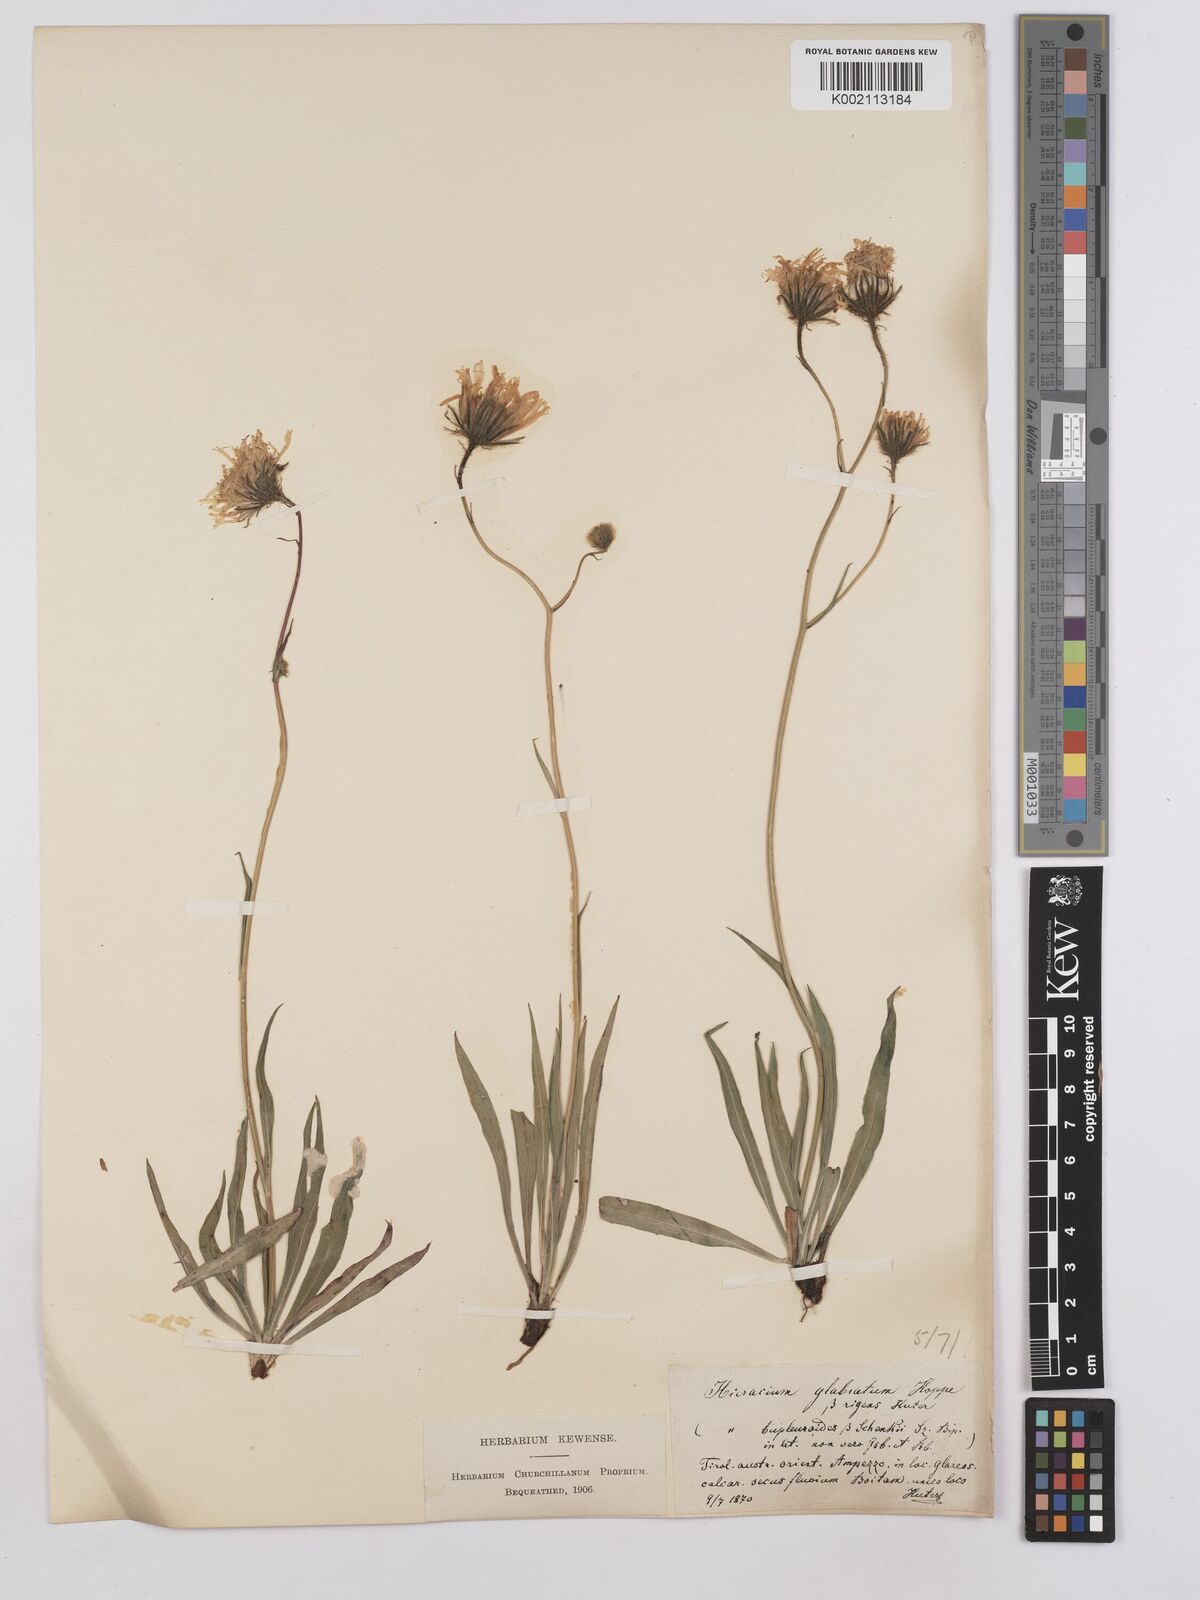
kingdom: Plantae
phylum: Tracheophyta
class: Magnoliopsida
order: Asterales
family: Asteraceae
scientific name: Asteraceae
